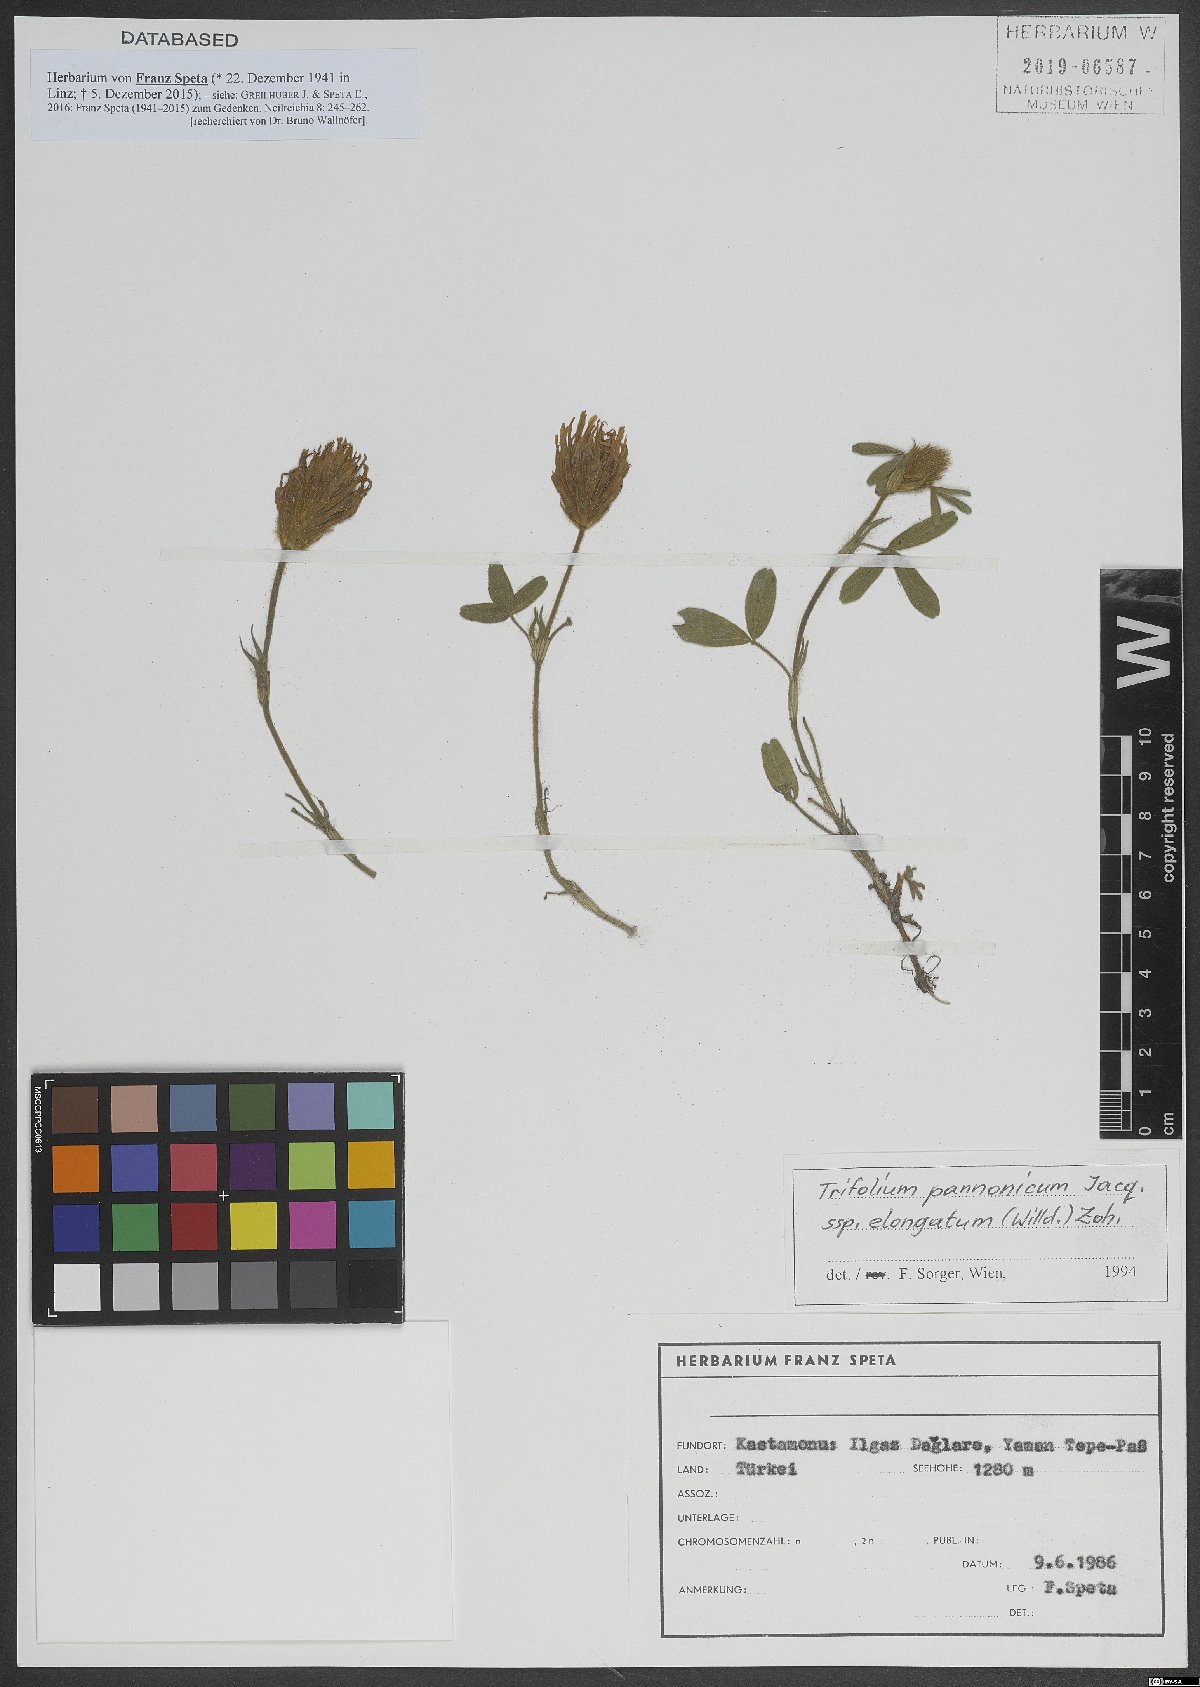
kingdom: Plantae
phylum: Tracheophyta
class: Magnoliopsida
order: Fabales
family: Fabaceae
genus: Trifolium
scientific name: Trifolium pannonicum
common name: Hungarian clover
